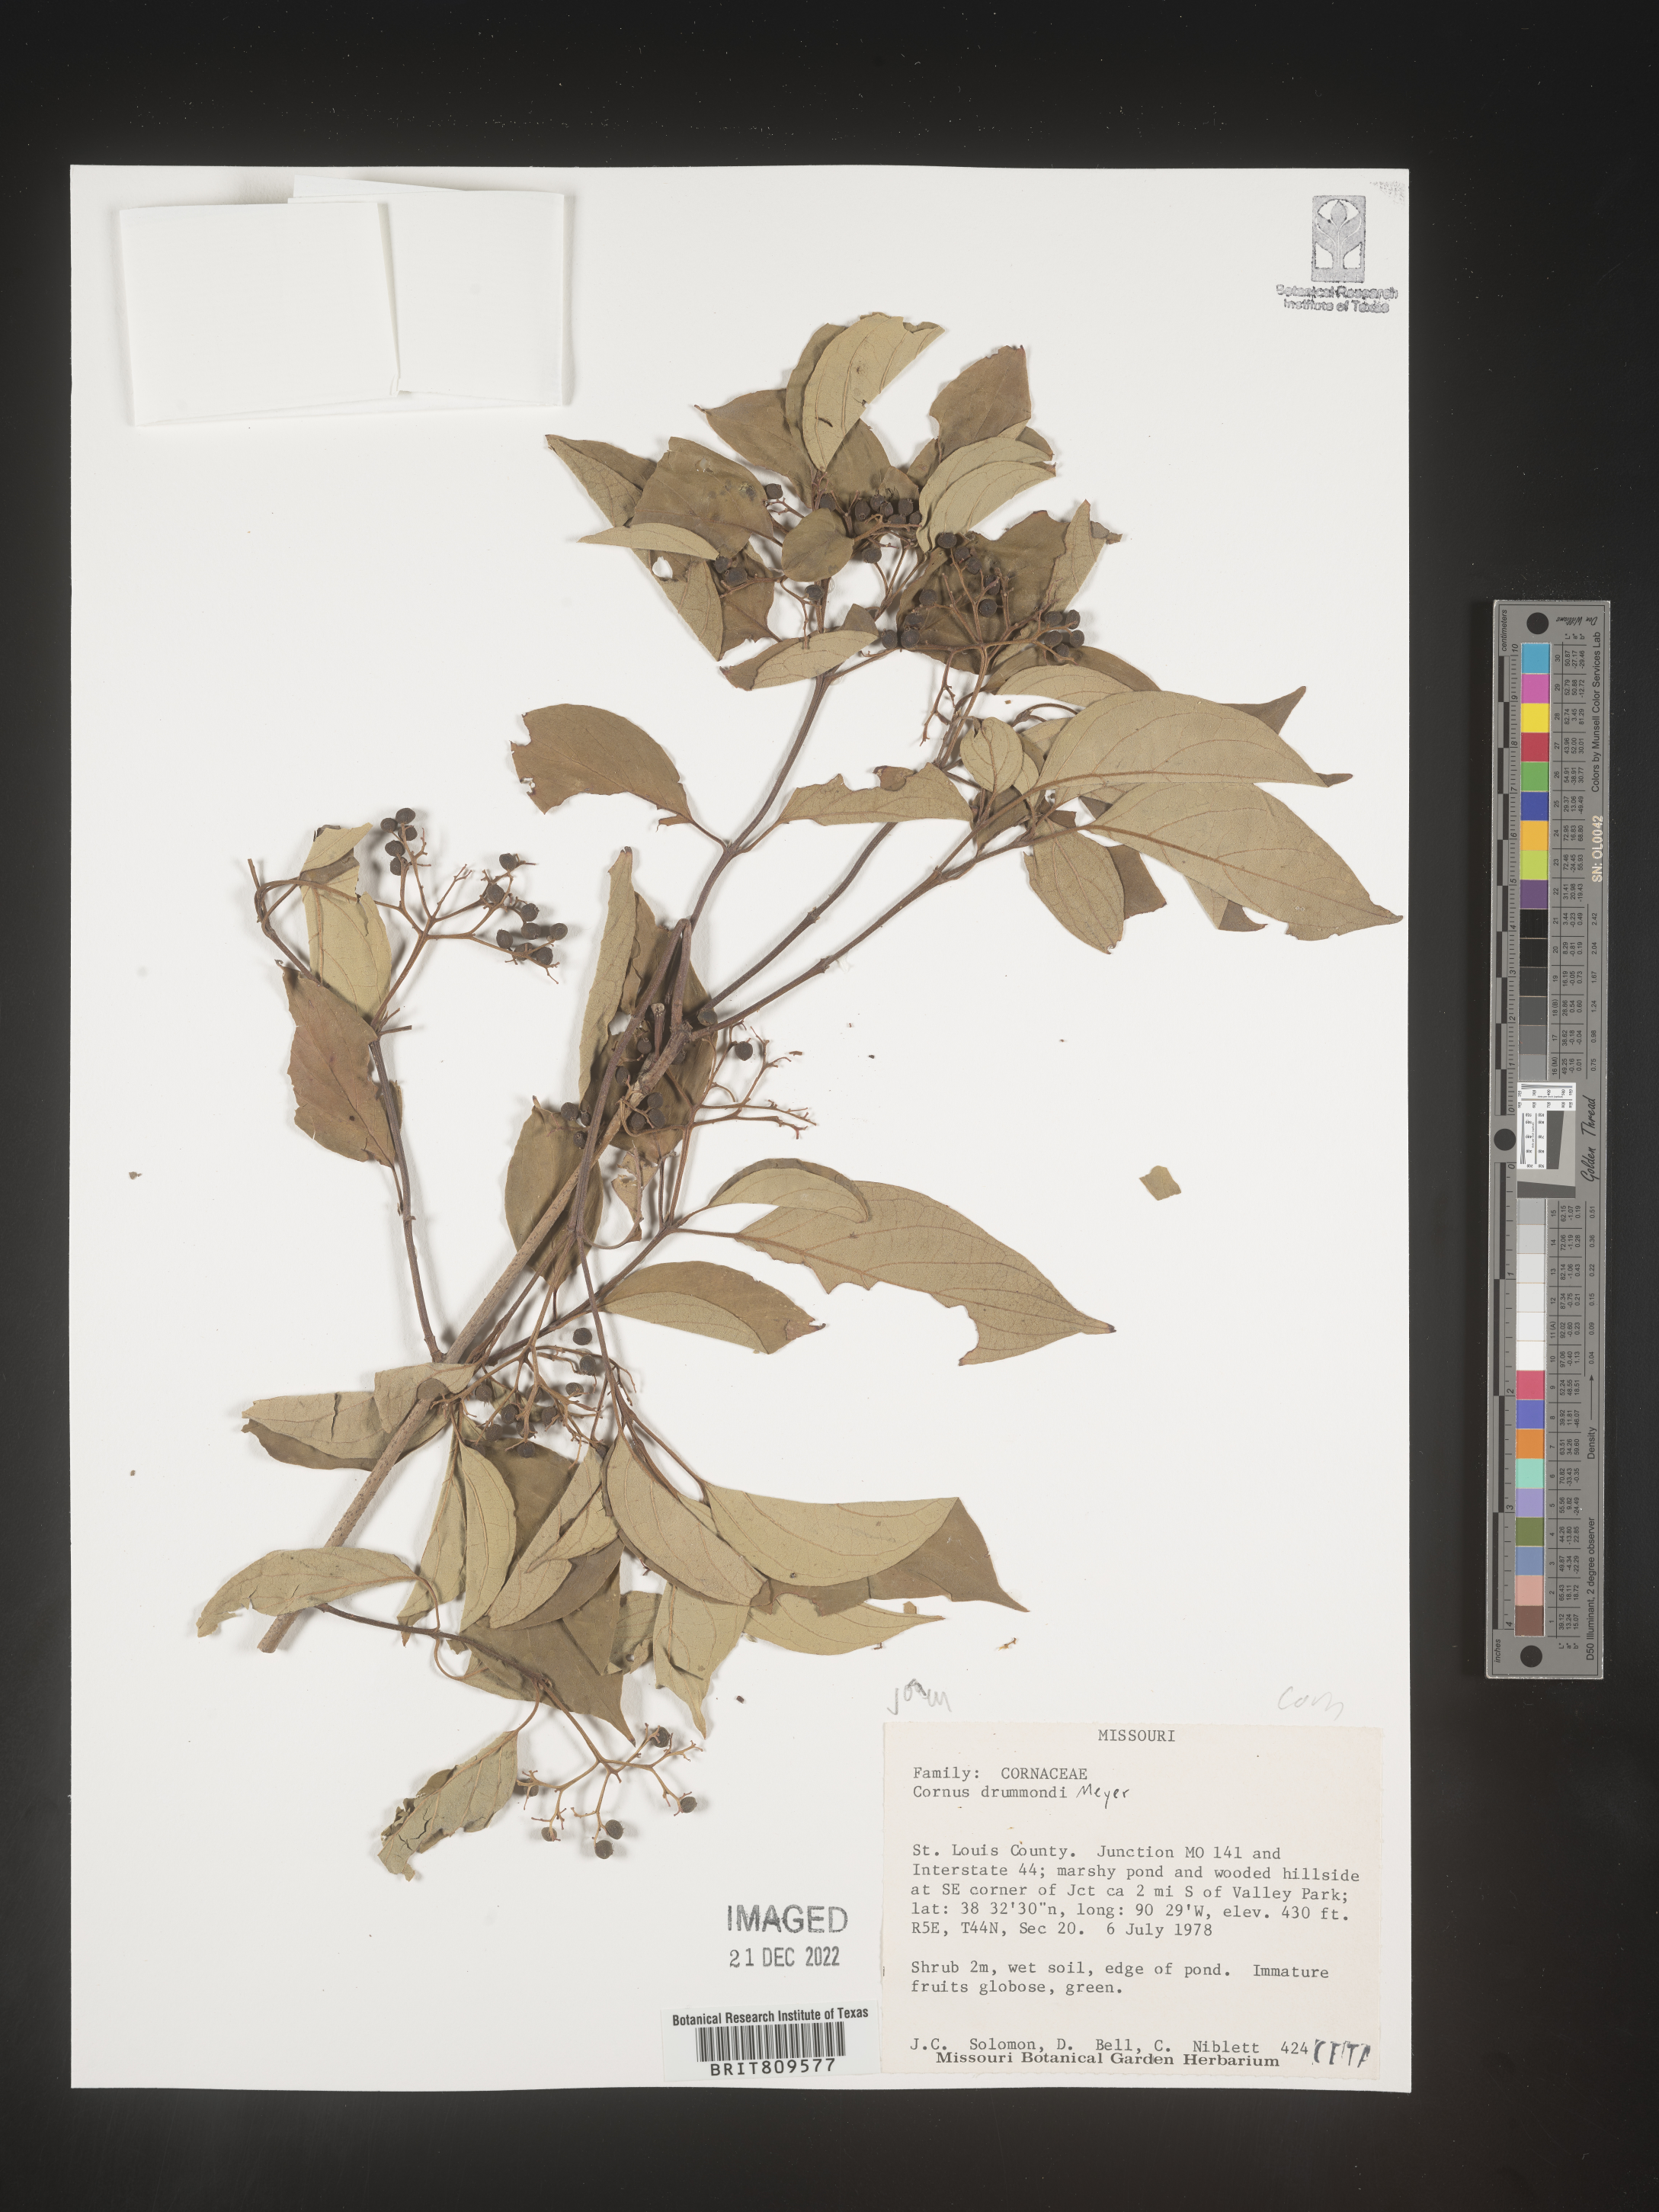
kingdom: Plantae
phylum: Tracheophyta
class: Magnoliopsida
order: Cornales
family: Cornaceae
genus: Cornus
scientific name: Cornus drummondii
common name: Rough-leaf dogwood
